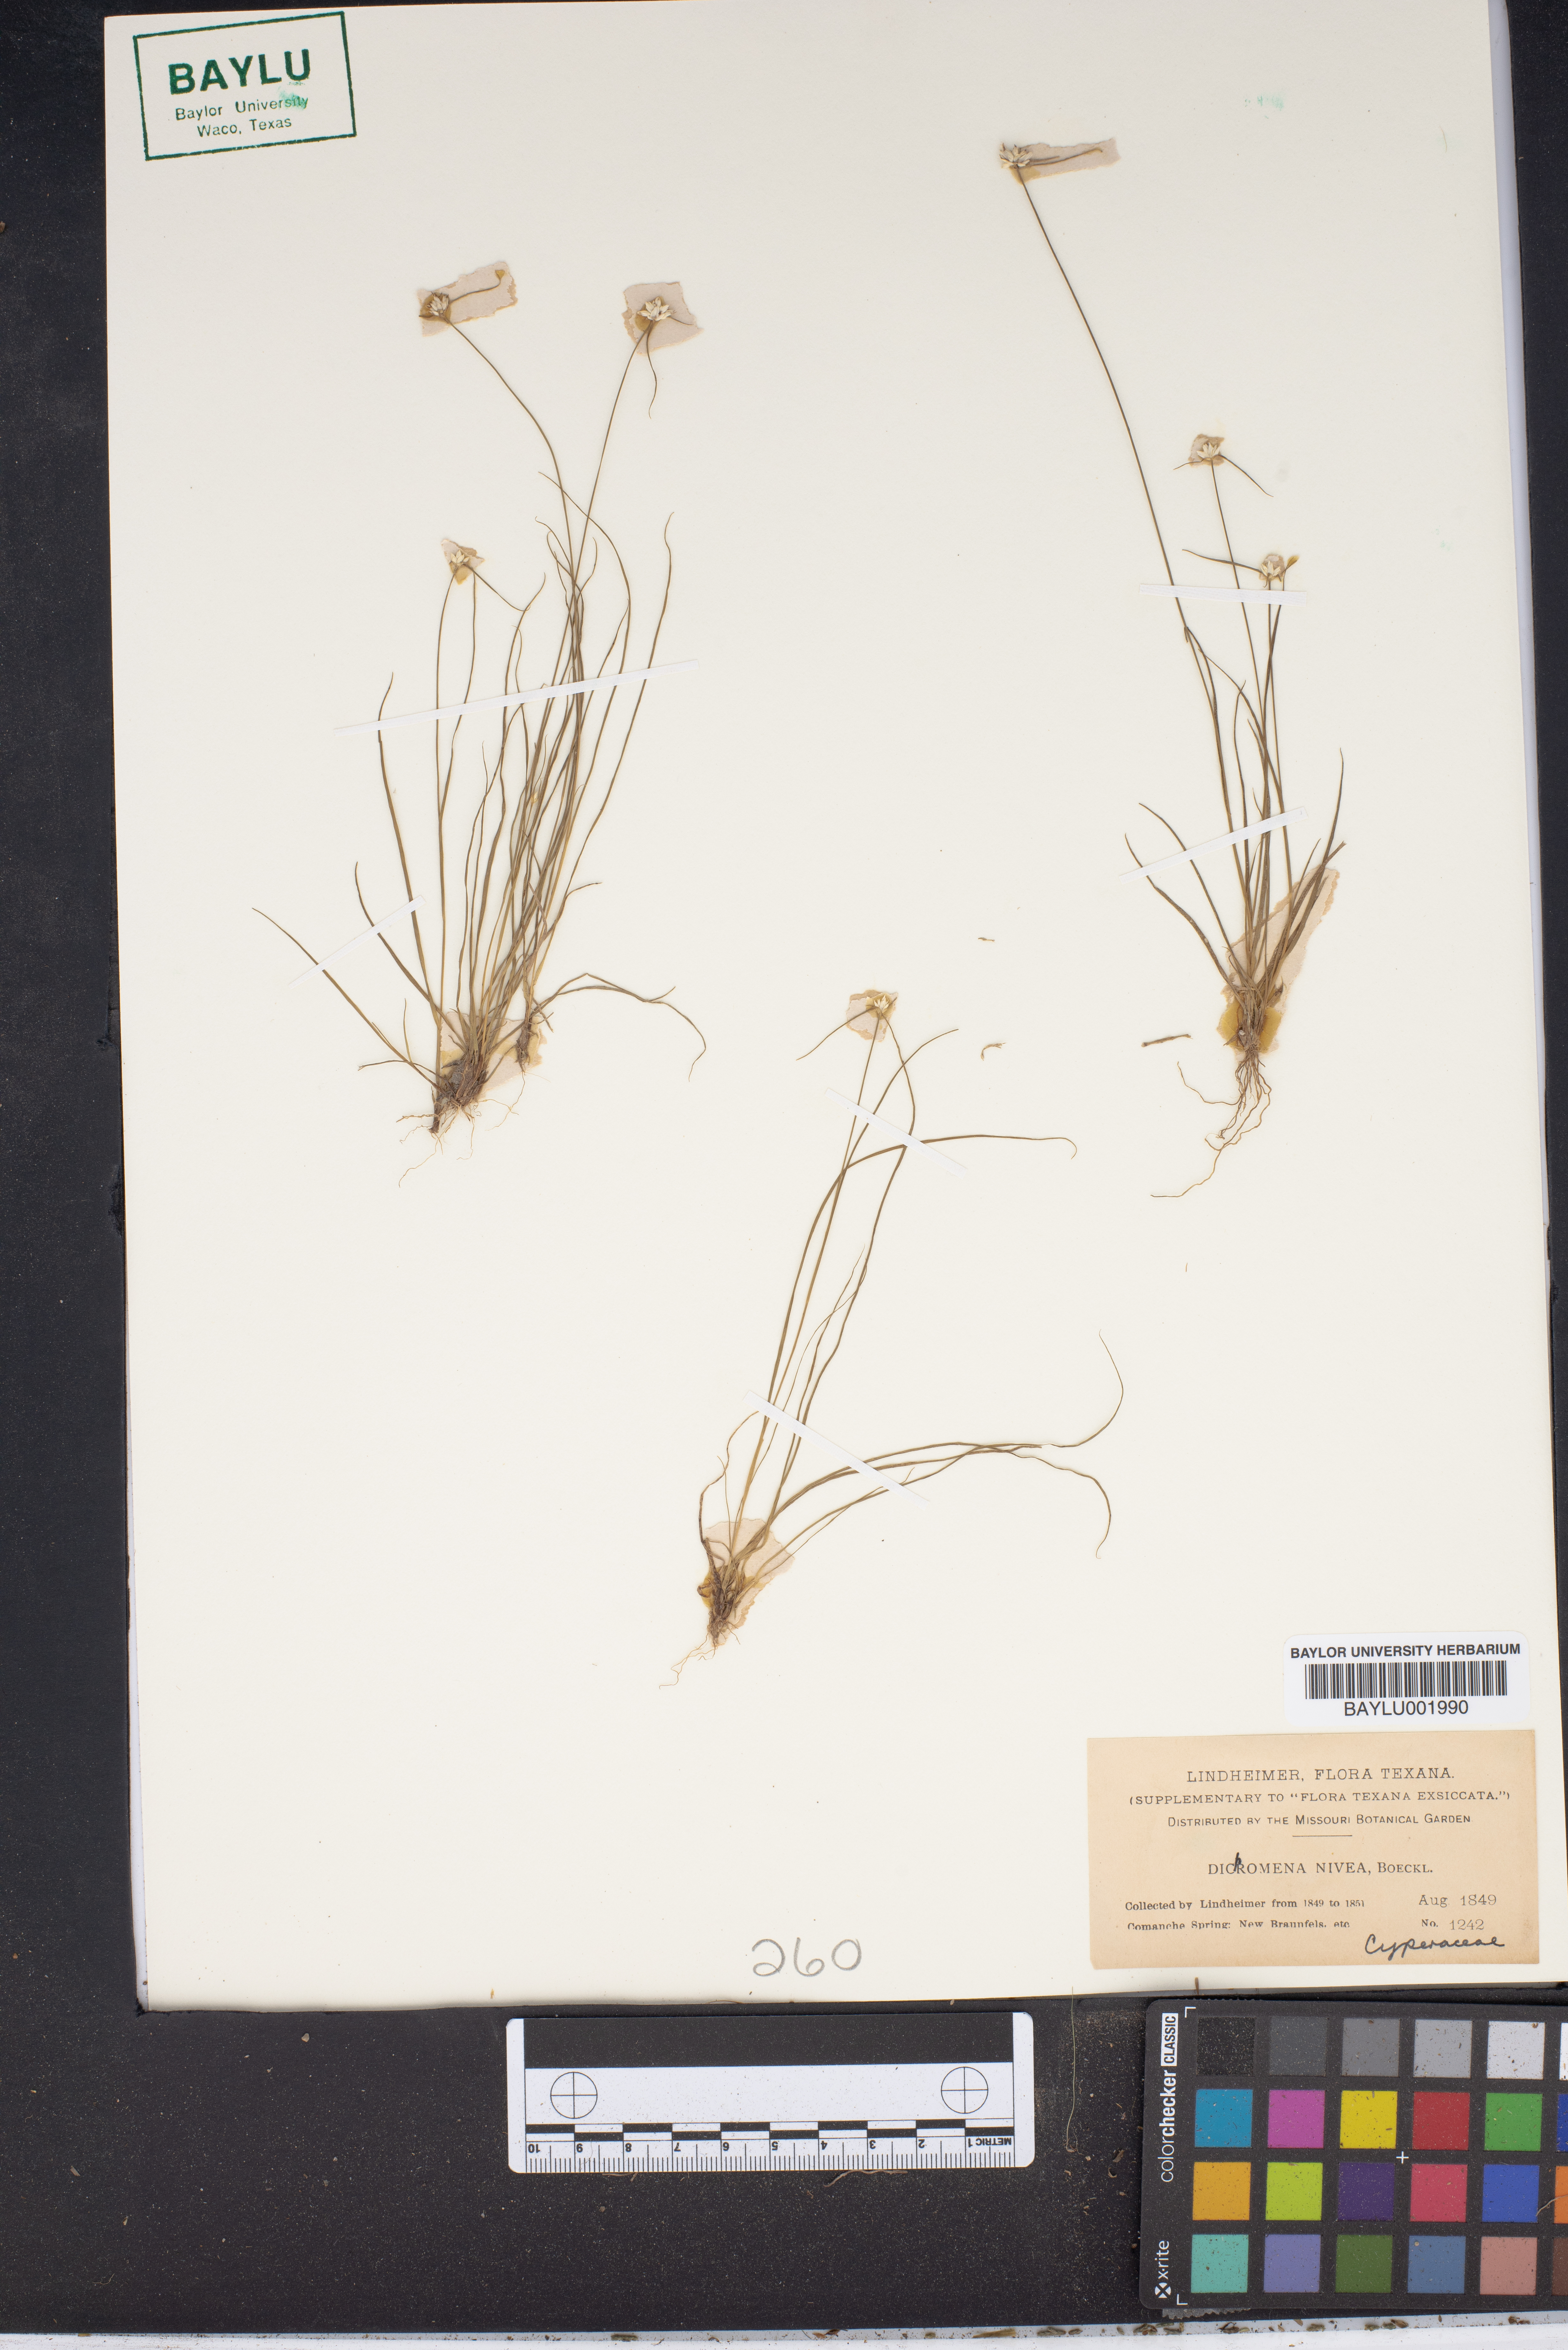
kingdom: Plantae
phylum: Tracheophyta
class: Liliopsida
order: Poales
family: Cyperaceae
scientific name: Cyperaceae
